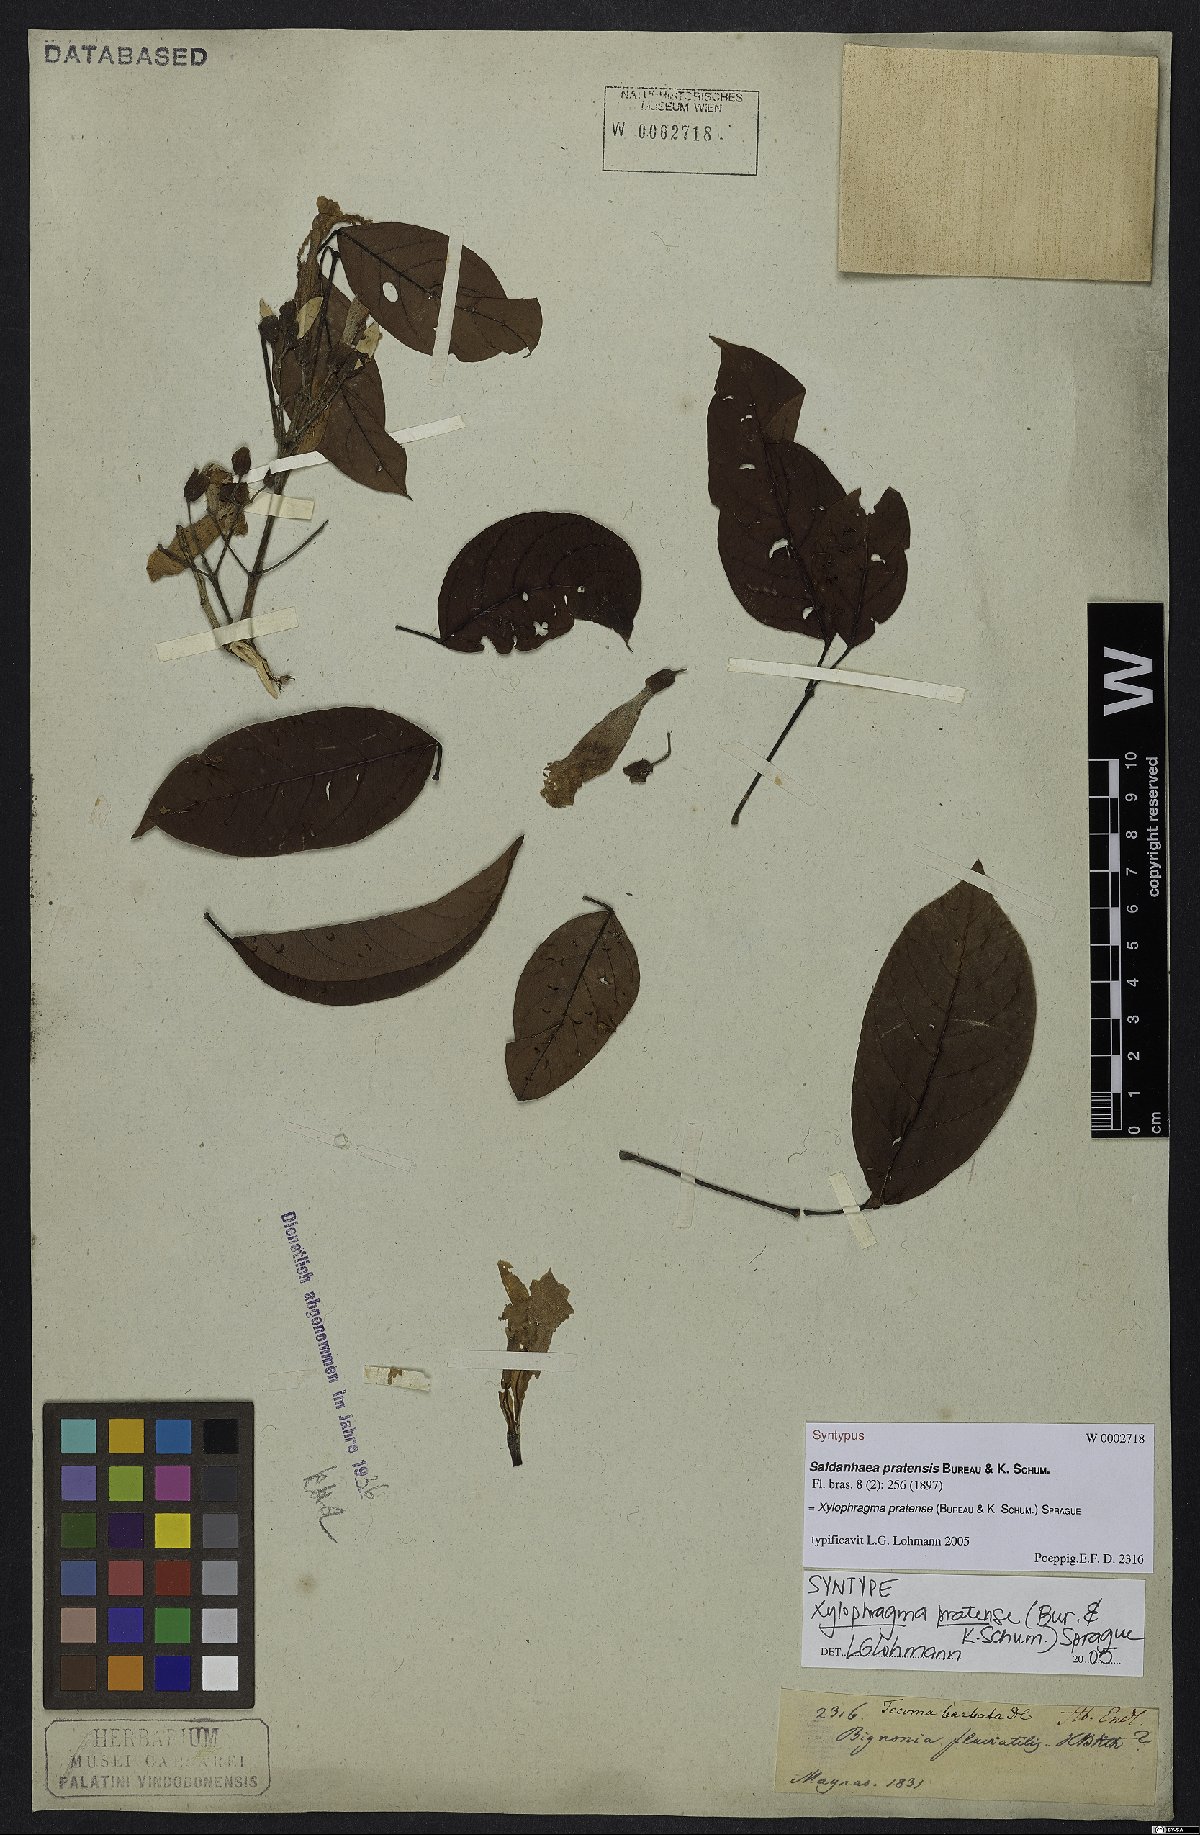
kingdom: Plantae
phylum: Tracheophyta
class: Magnoliopsida
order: Lamiales
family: Bignoniaceae
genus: Xylophragma
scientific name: Xylophragma myrianthum
